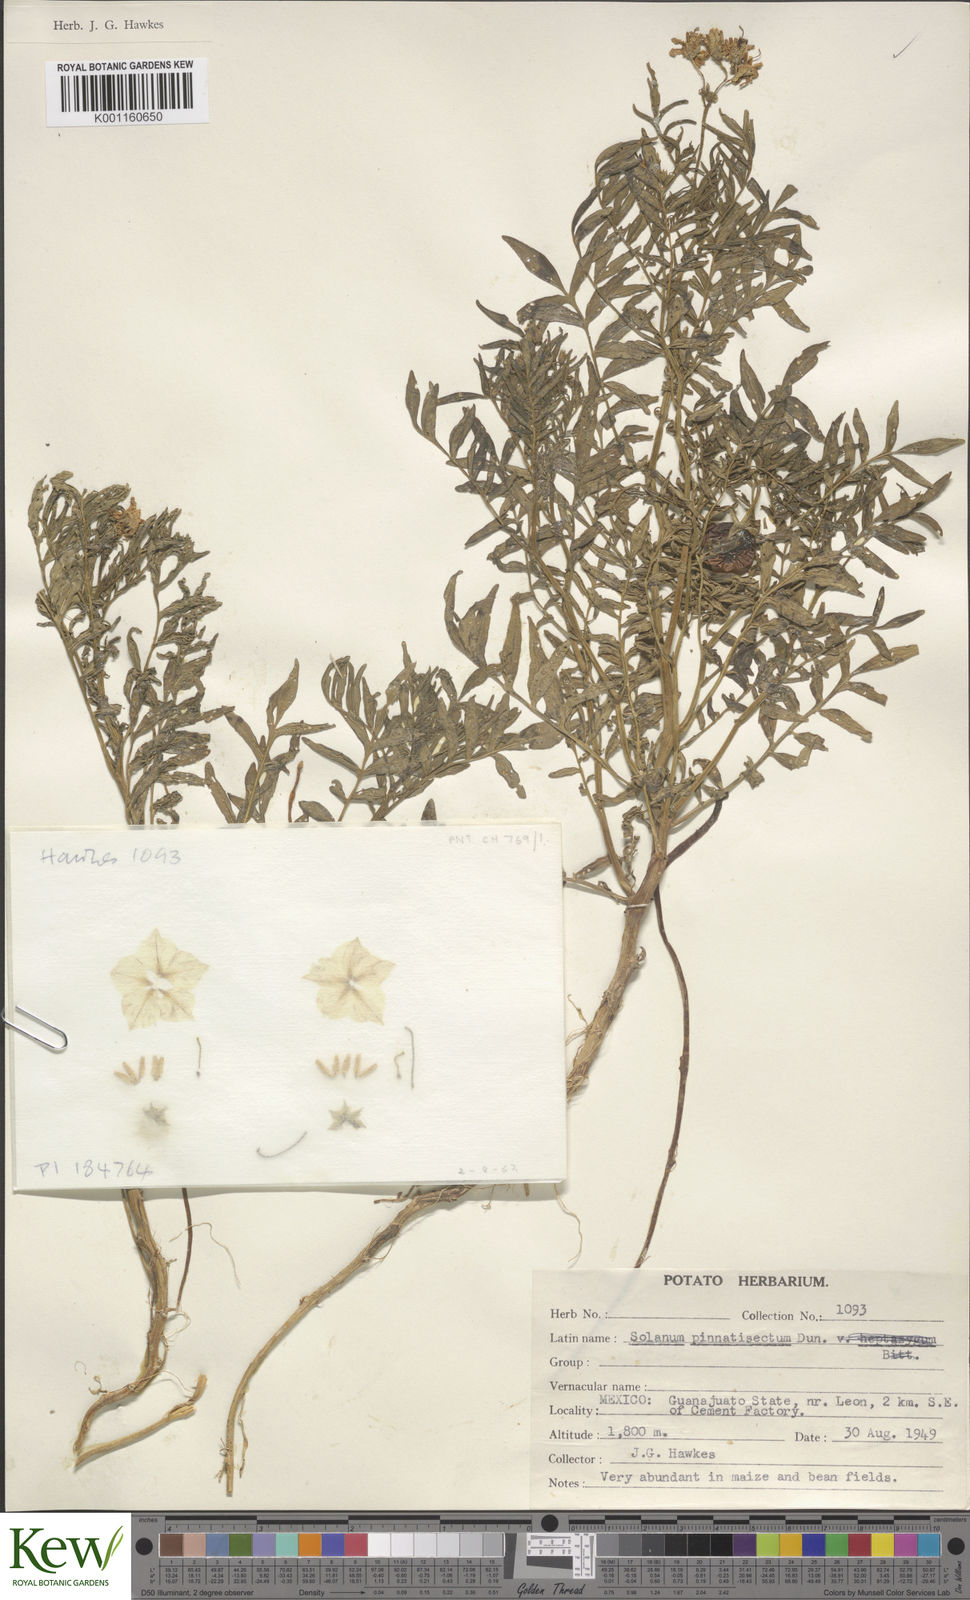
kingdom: Plantae
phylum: Tracheophyta
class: Magnoliopsida
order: Solanales
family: Solanaceae
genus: Solanum
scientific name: Solanum pinnatisectum
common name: Tansyleaf nightshade
